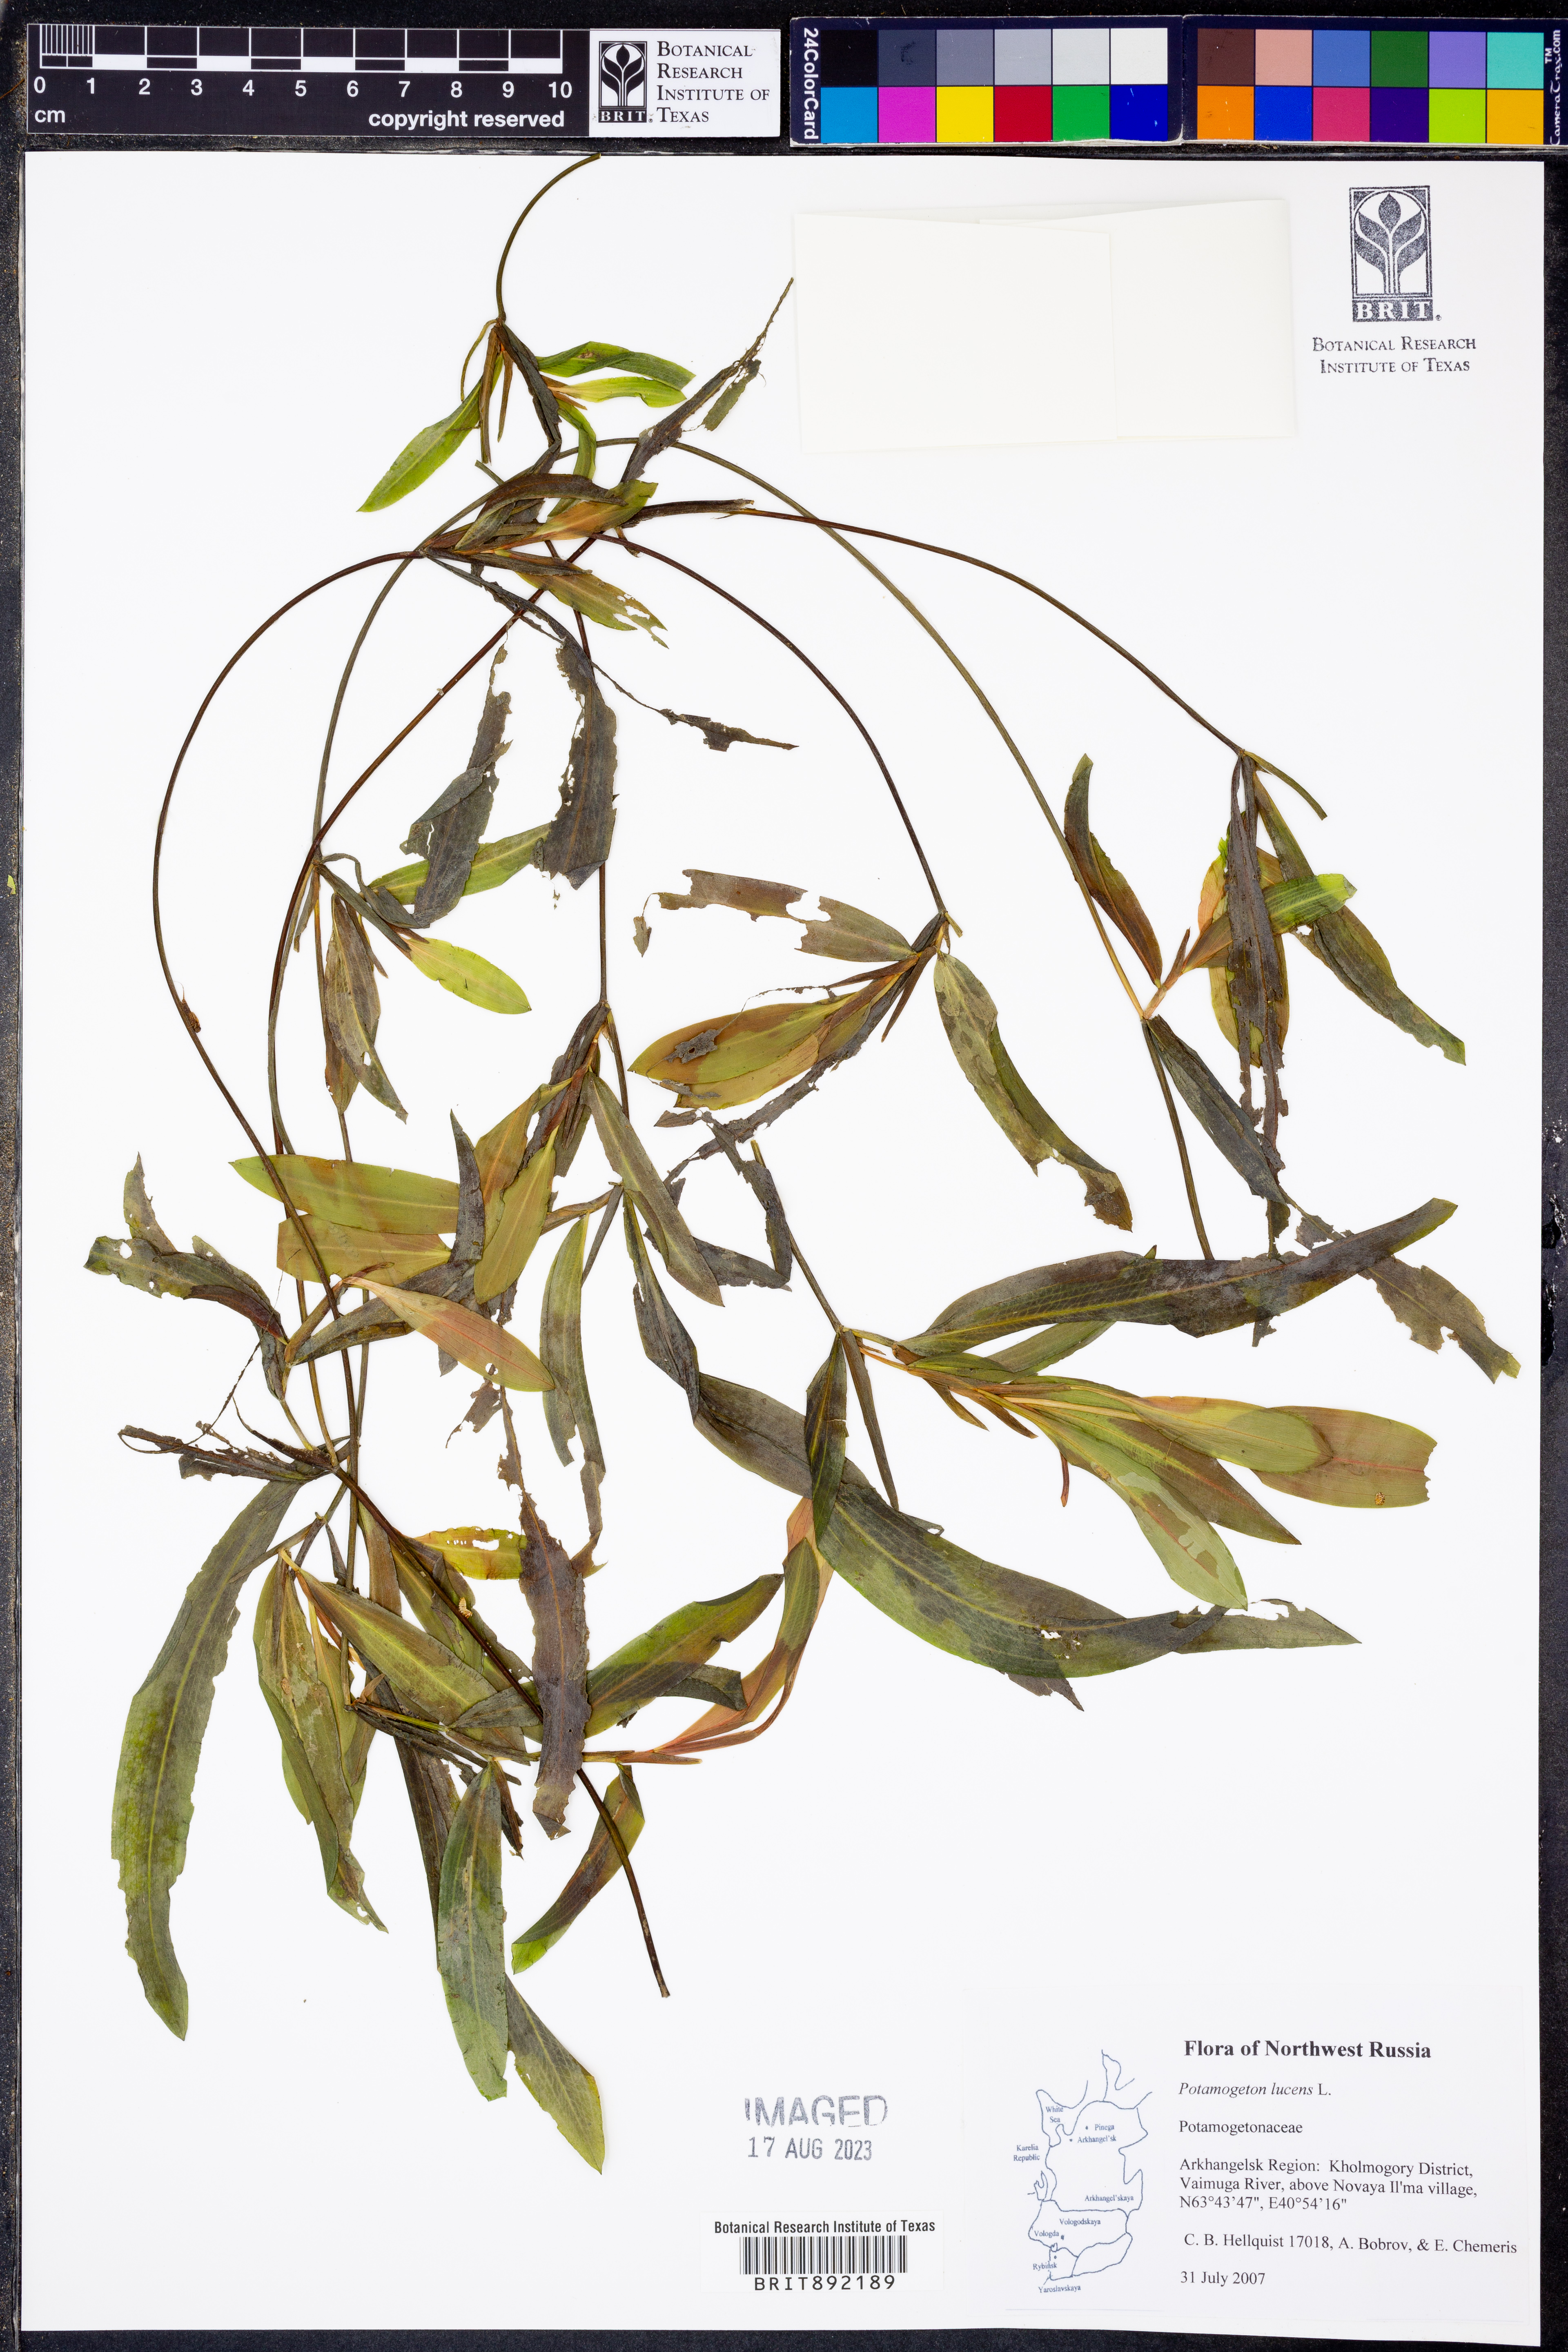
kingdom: Plantae
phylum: Tracheophyta
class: Liliopsida
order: Alismatales
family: Potamogetonaceae
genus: Potamogeton
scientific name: Potamogeton lucens
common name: Shining pondweed
